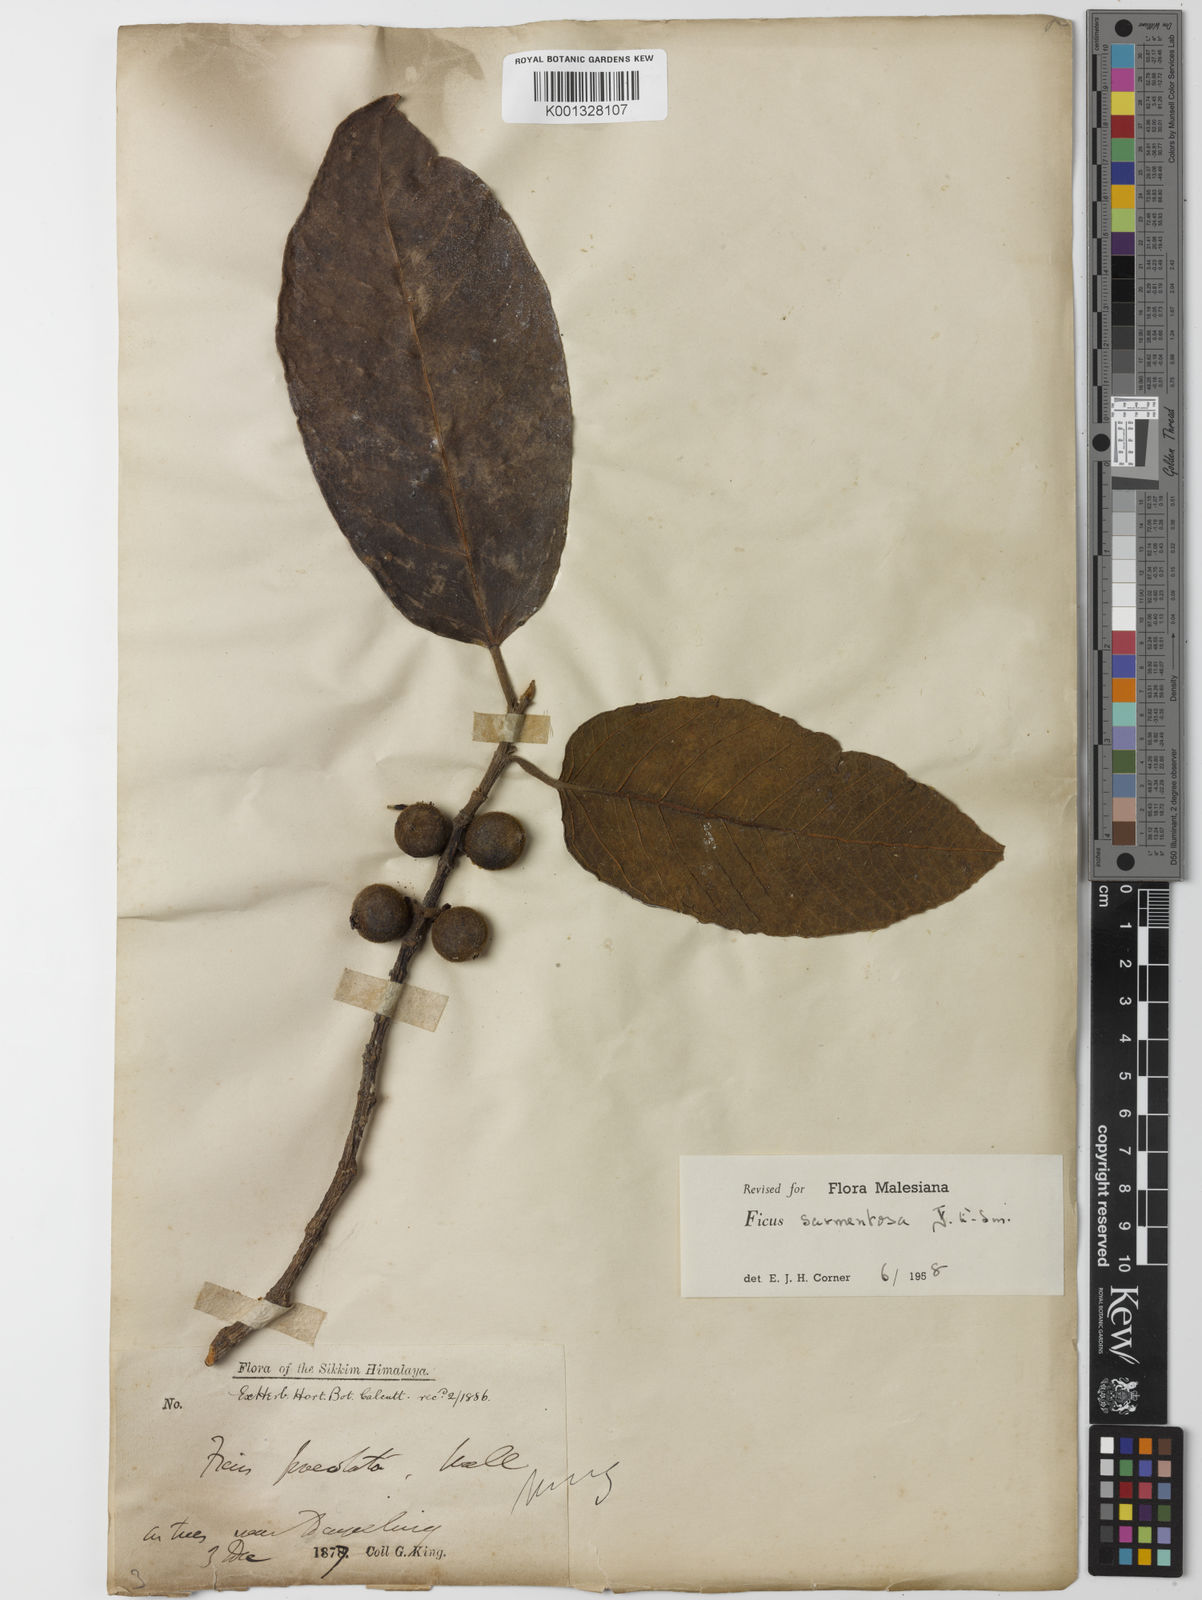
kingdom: Plantae
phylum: Tracheophyta
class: Magnoliopsida
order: Rosales
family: Moraceae
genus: Ficus
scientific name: Ficus sarmentosa
